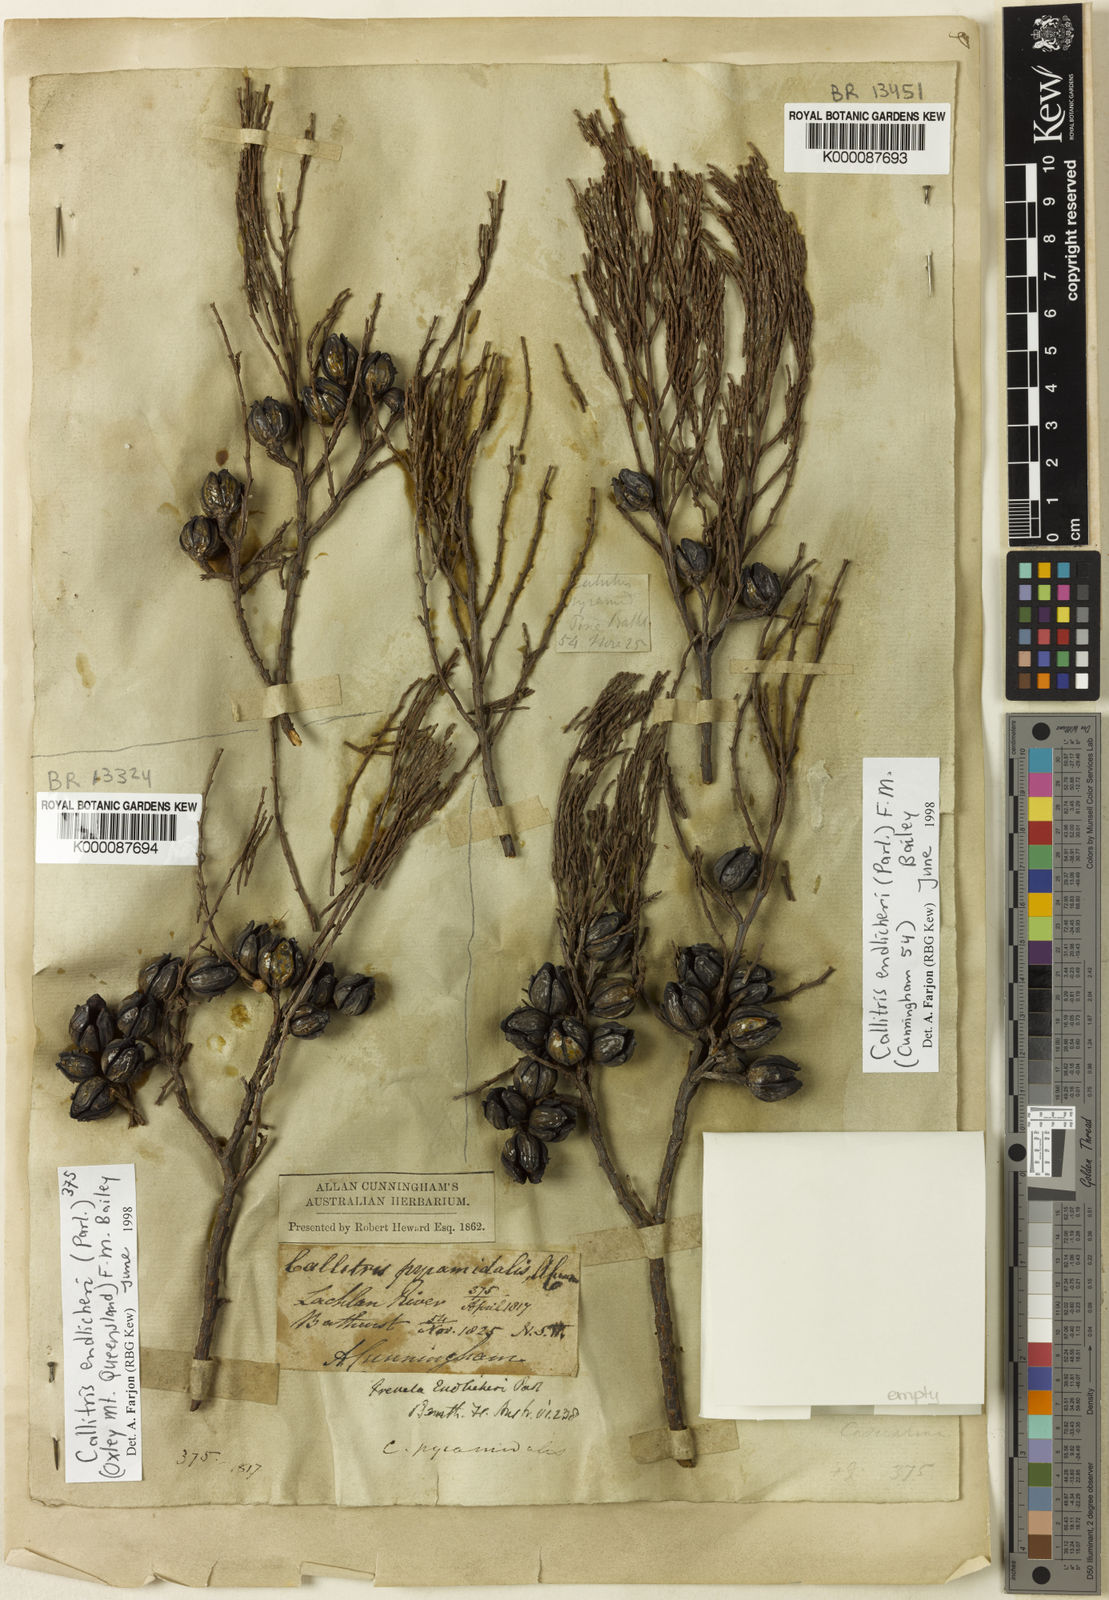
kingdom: Plantae
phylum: Tracheophyta
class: Pinopsida
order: Pinales
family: Cupressaceae
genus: Callitris
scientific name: Callitris endlicheri
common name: Black cypress-pine
